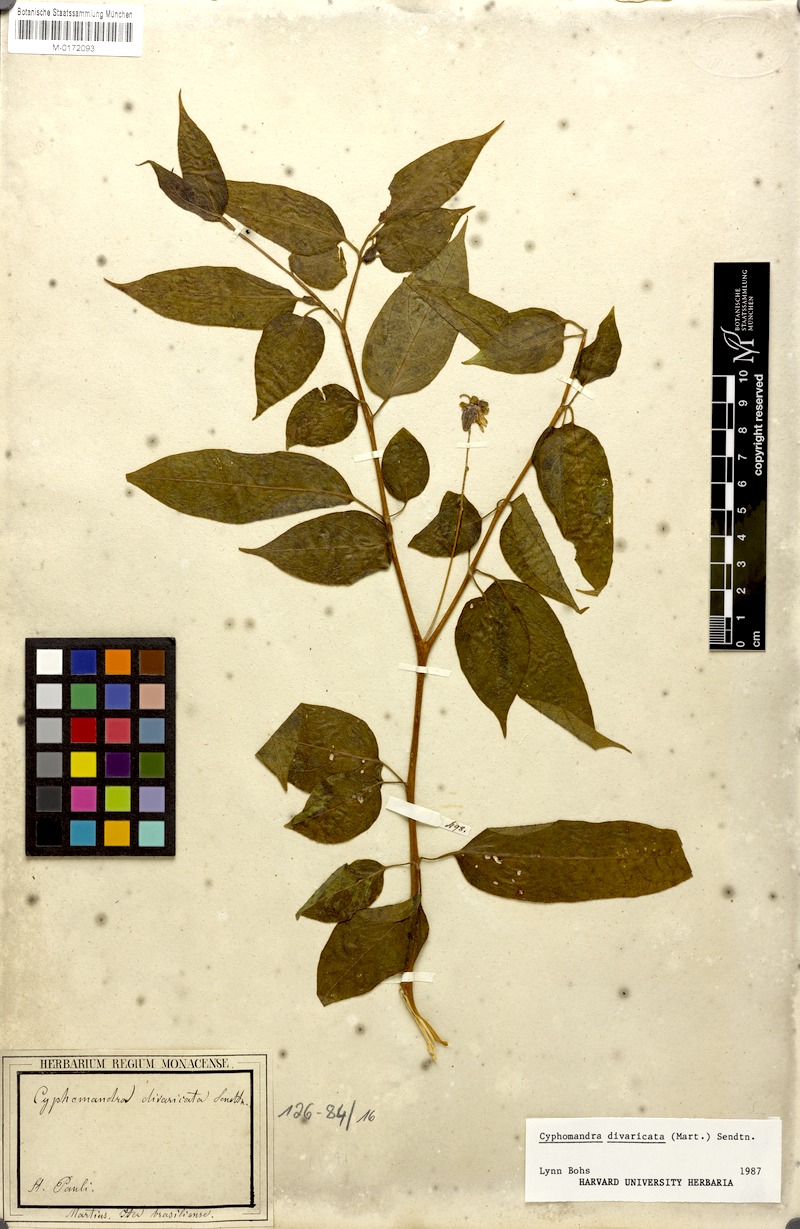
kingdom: Plantae
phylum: Tracheophyta
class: Magnoliopsida
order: Solanales
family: Solanaceae
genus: Solanum
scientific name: Solanum melissarum
